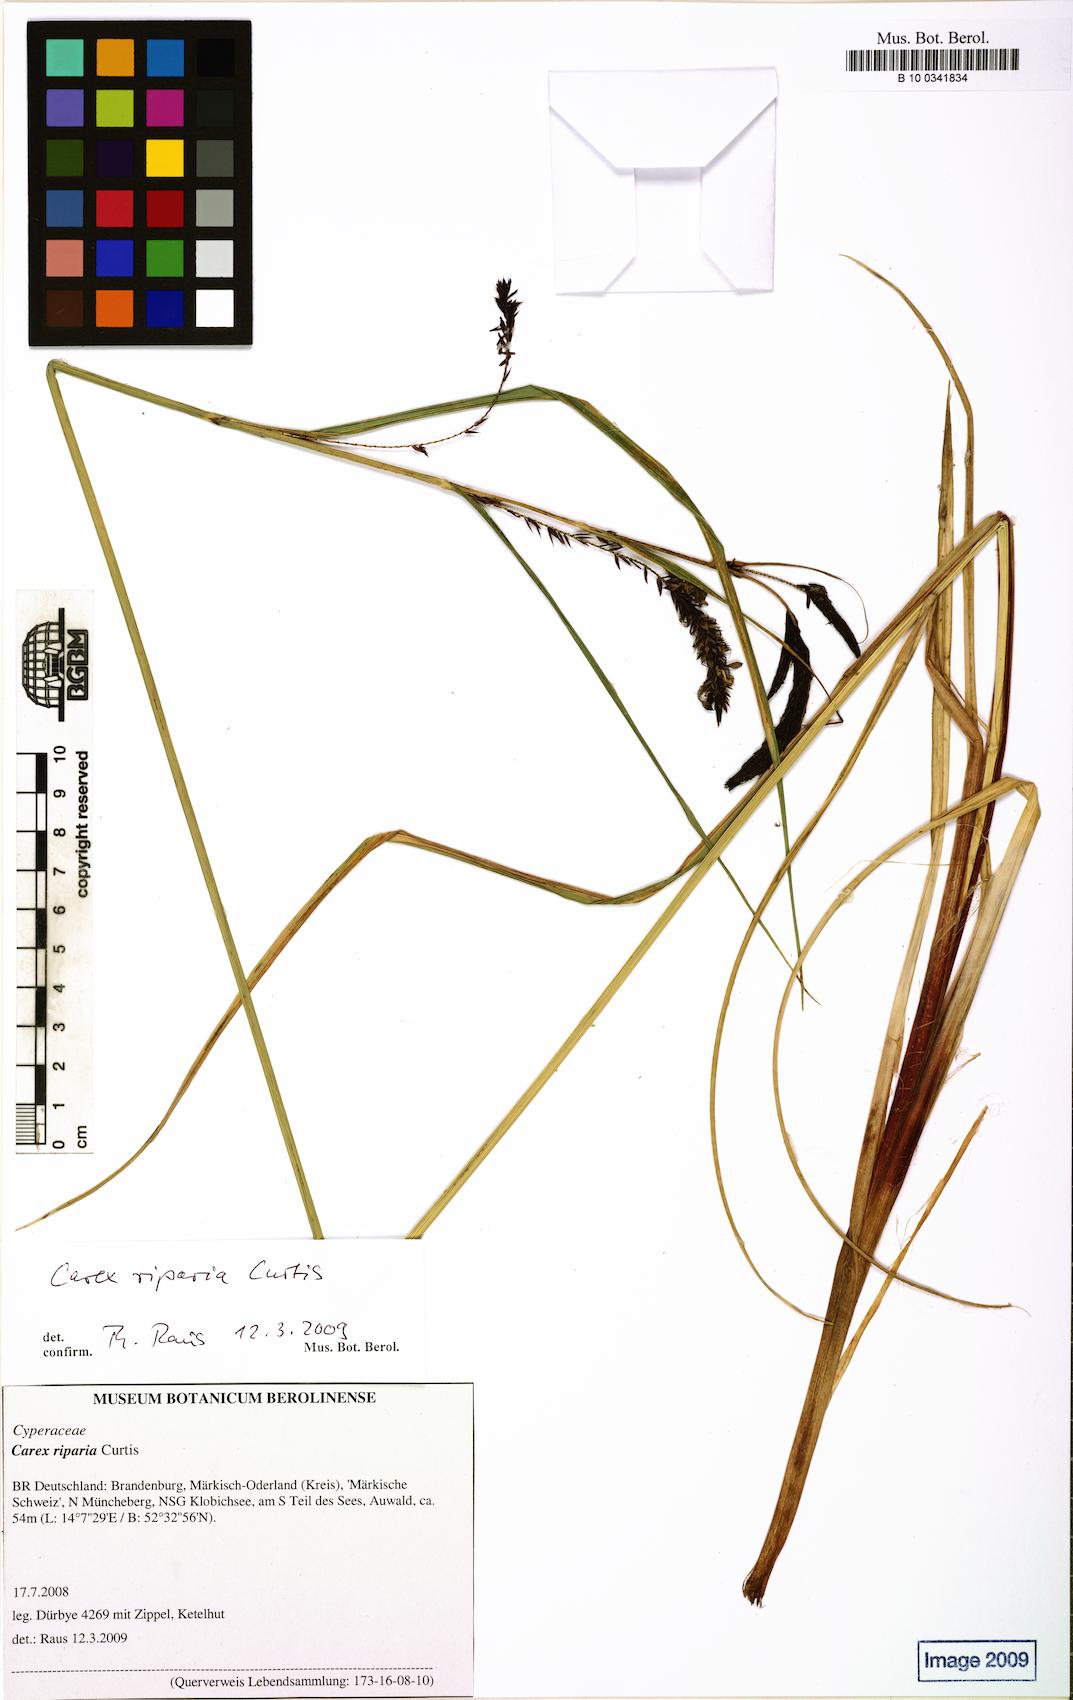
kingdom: Plantae
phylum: Tracheophyta
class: Liliopsida
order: Poales
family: Cyperaceae
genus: Carex
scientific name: Carex riparia
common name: Greater pond-sedge
